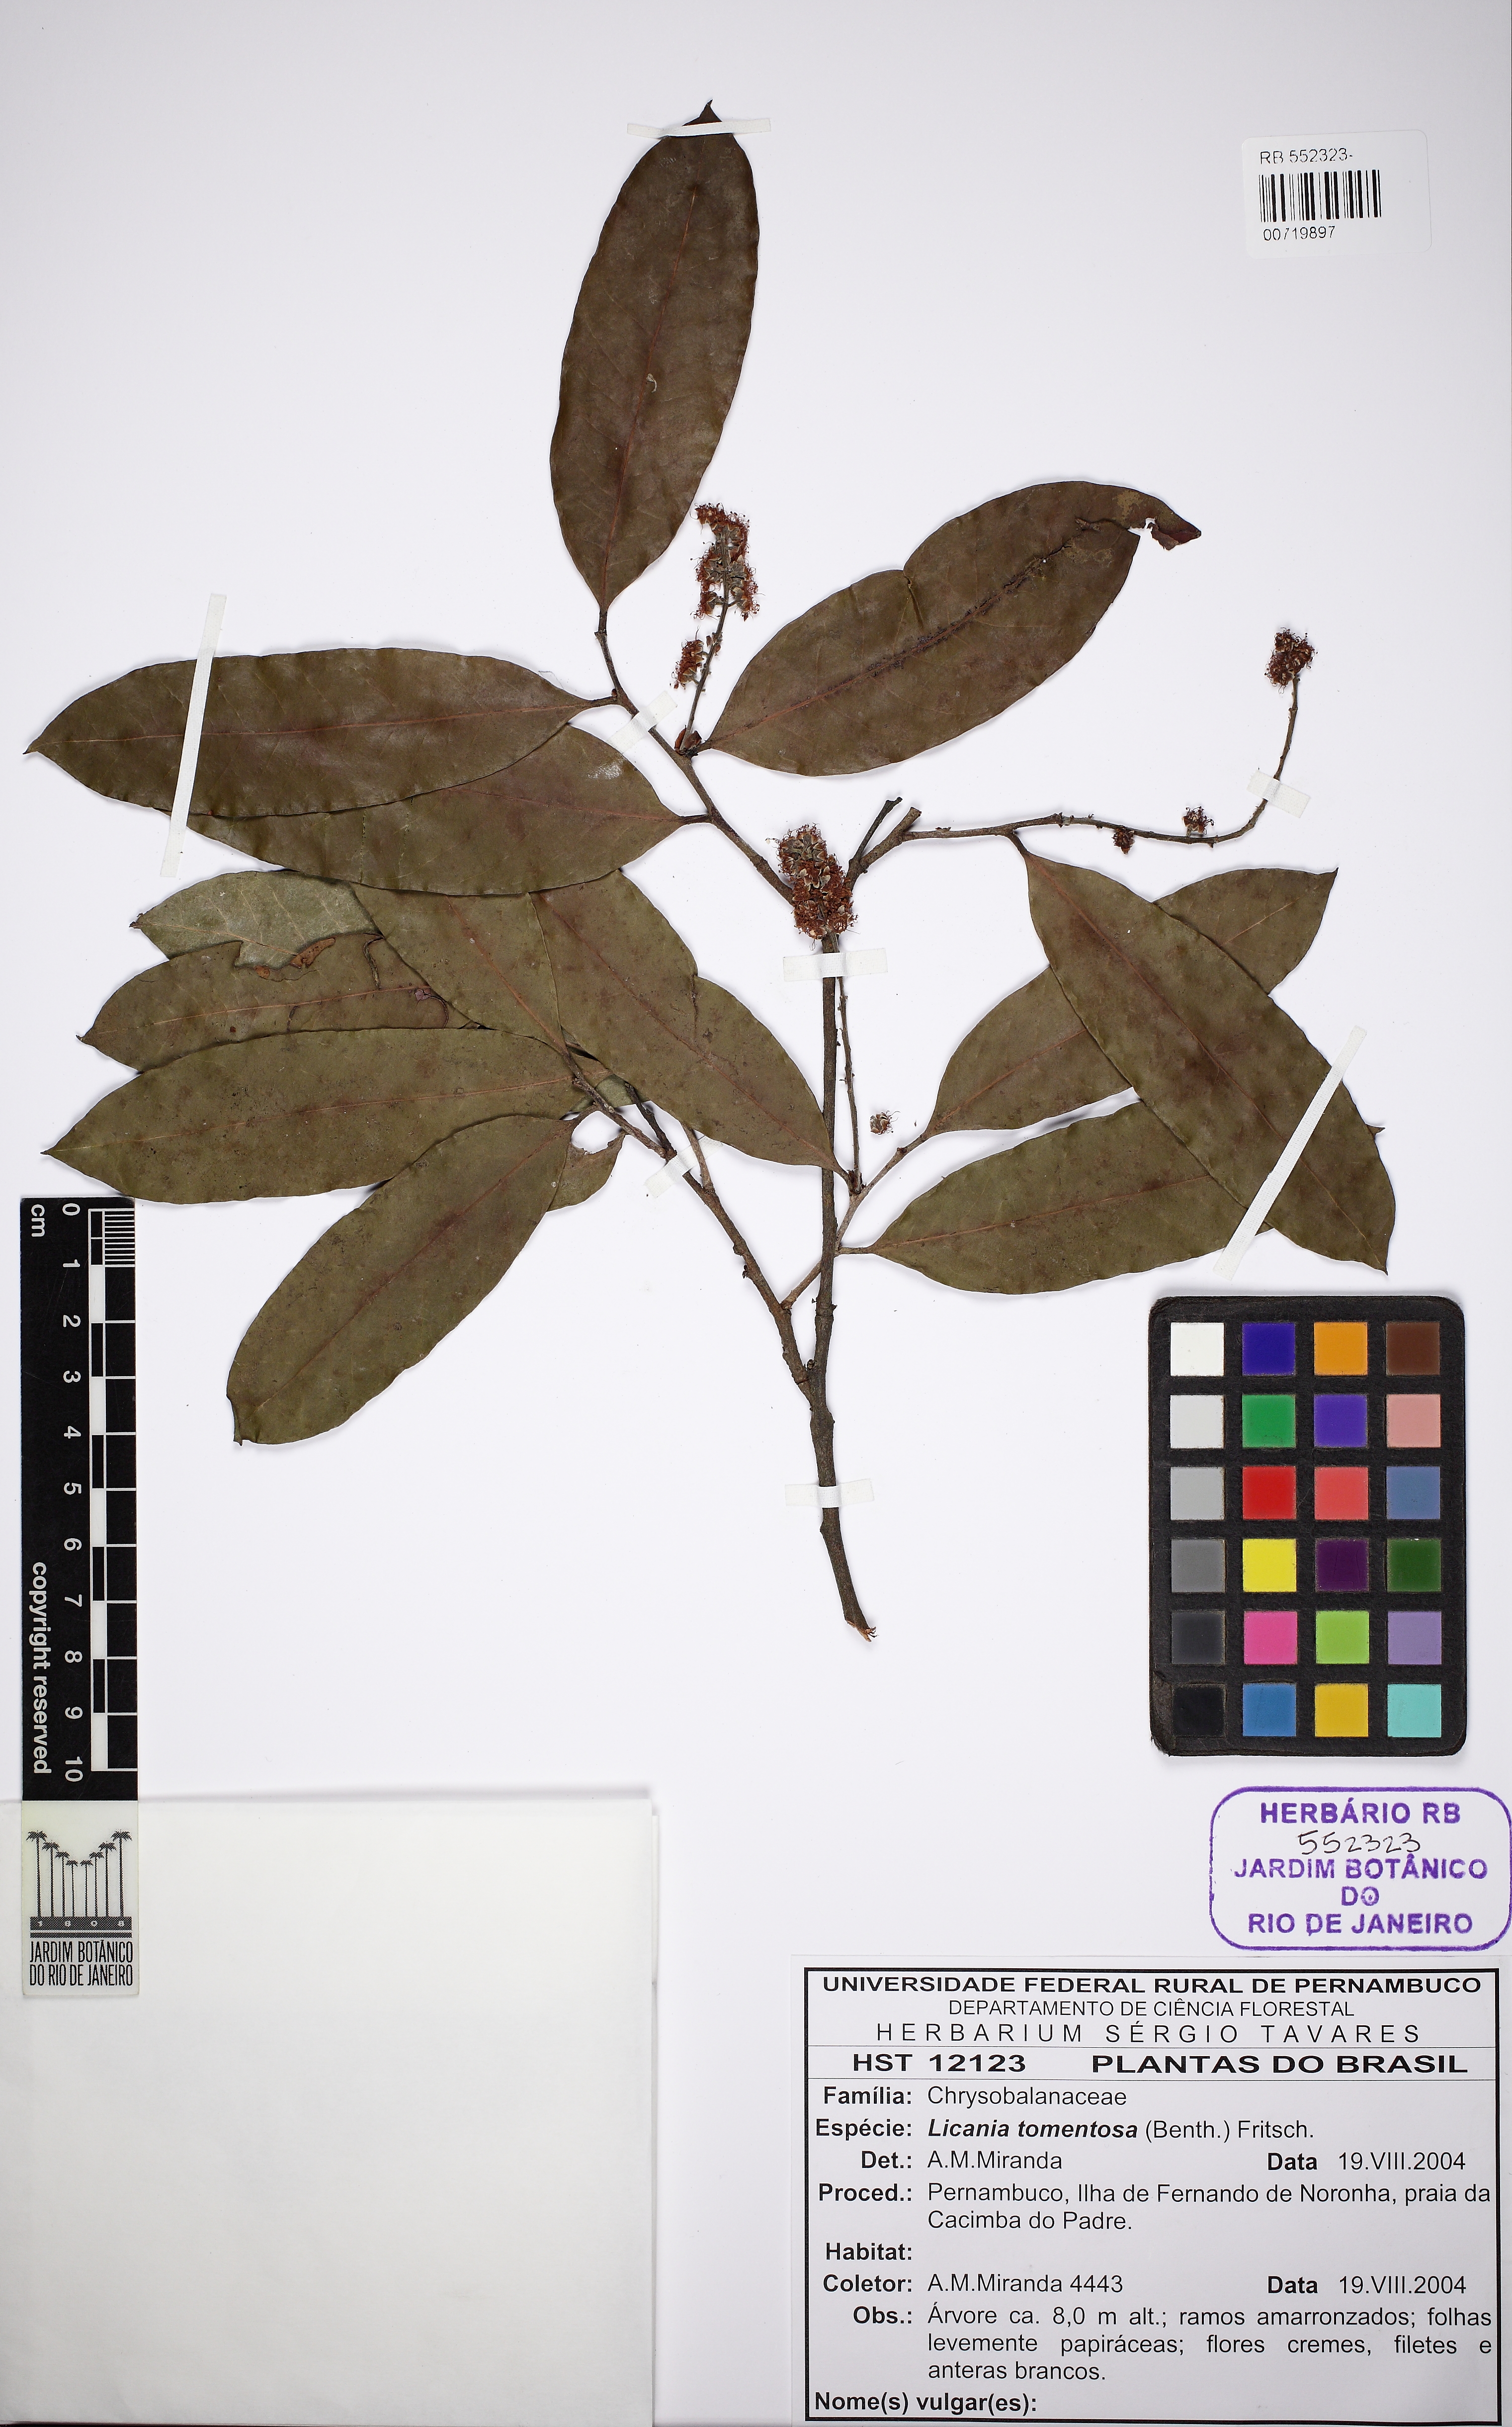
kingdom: Plantae
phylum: Tracheophyta
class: Magnoliopsida
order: Malpighiales
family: Chrysobalanaceae
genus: Moquilea
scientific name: Moquilea tomentosa
